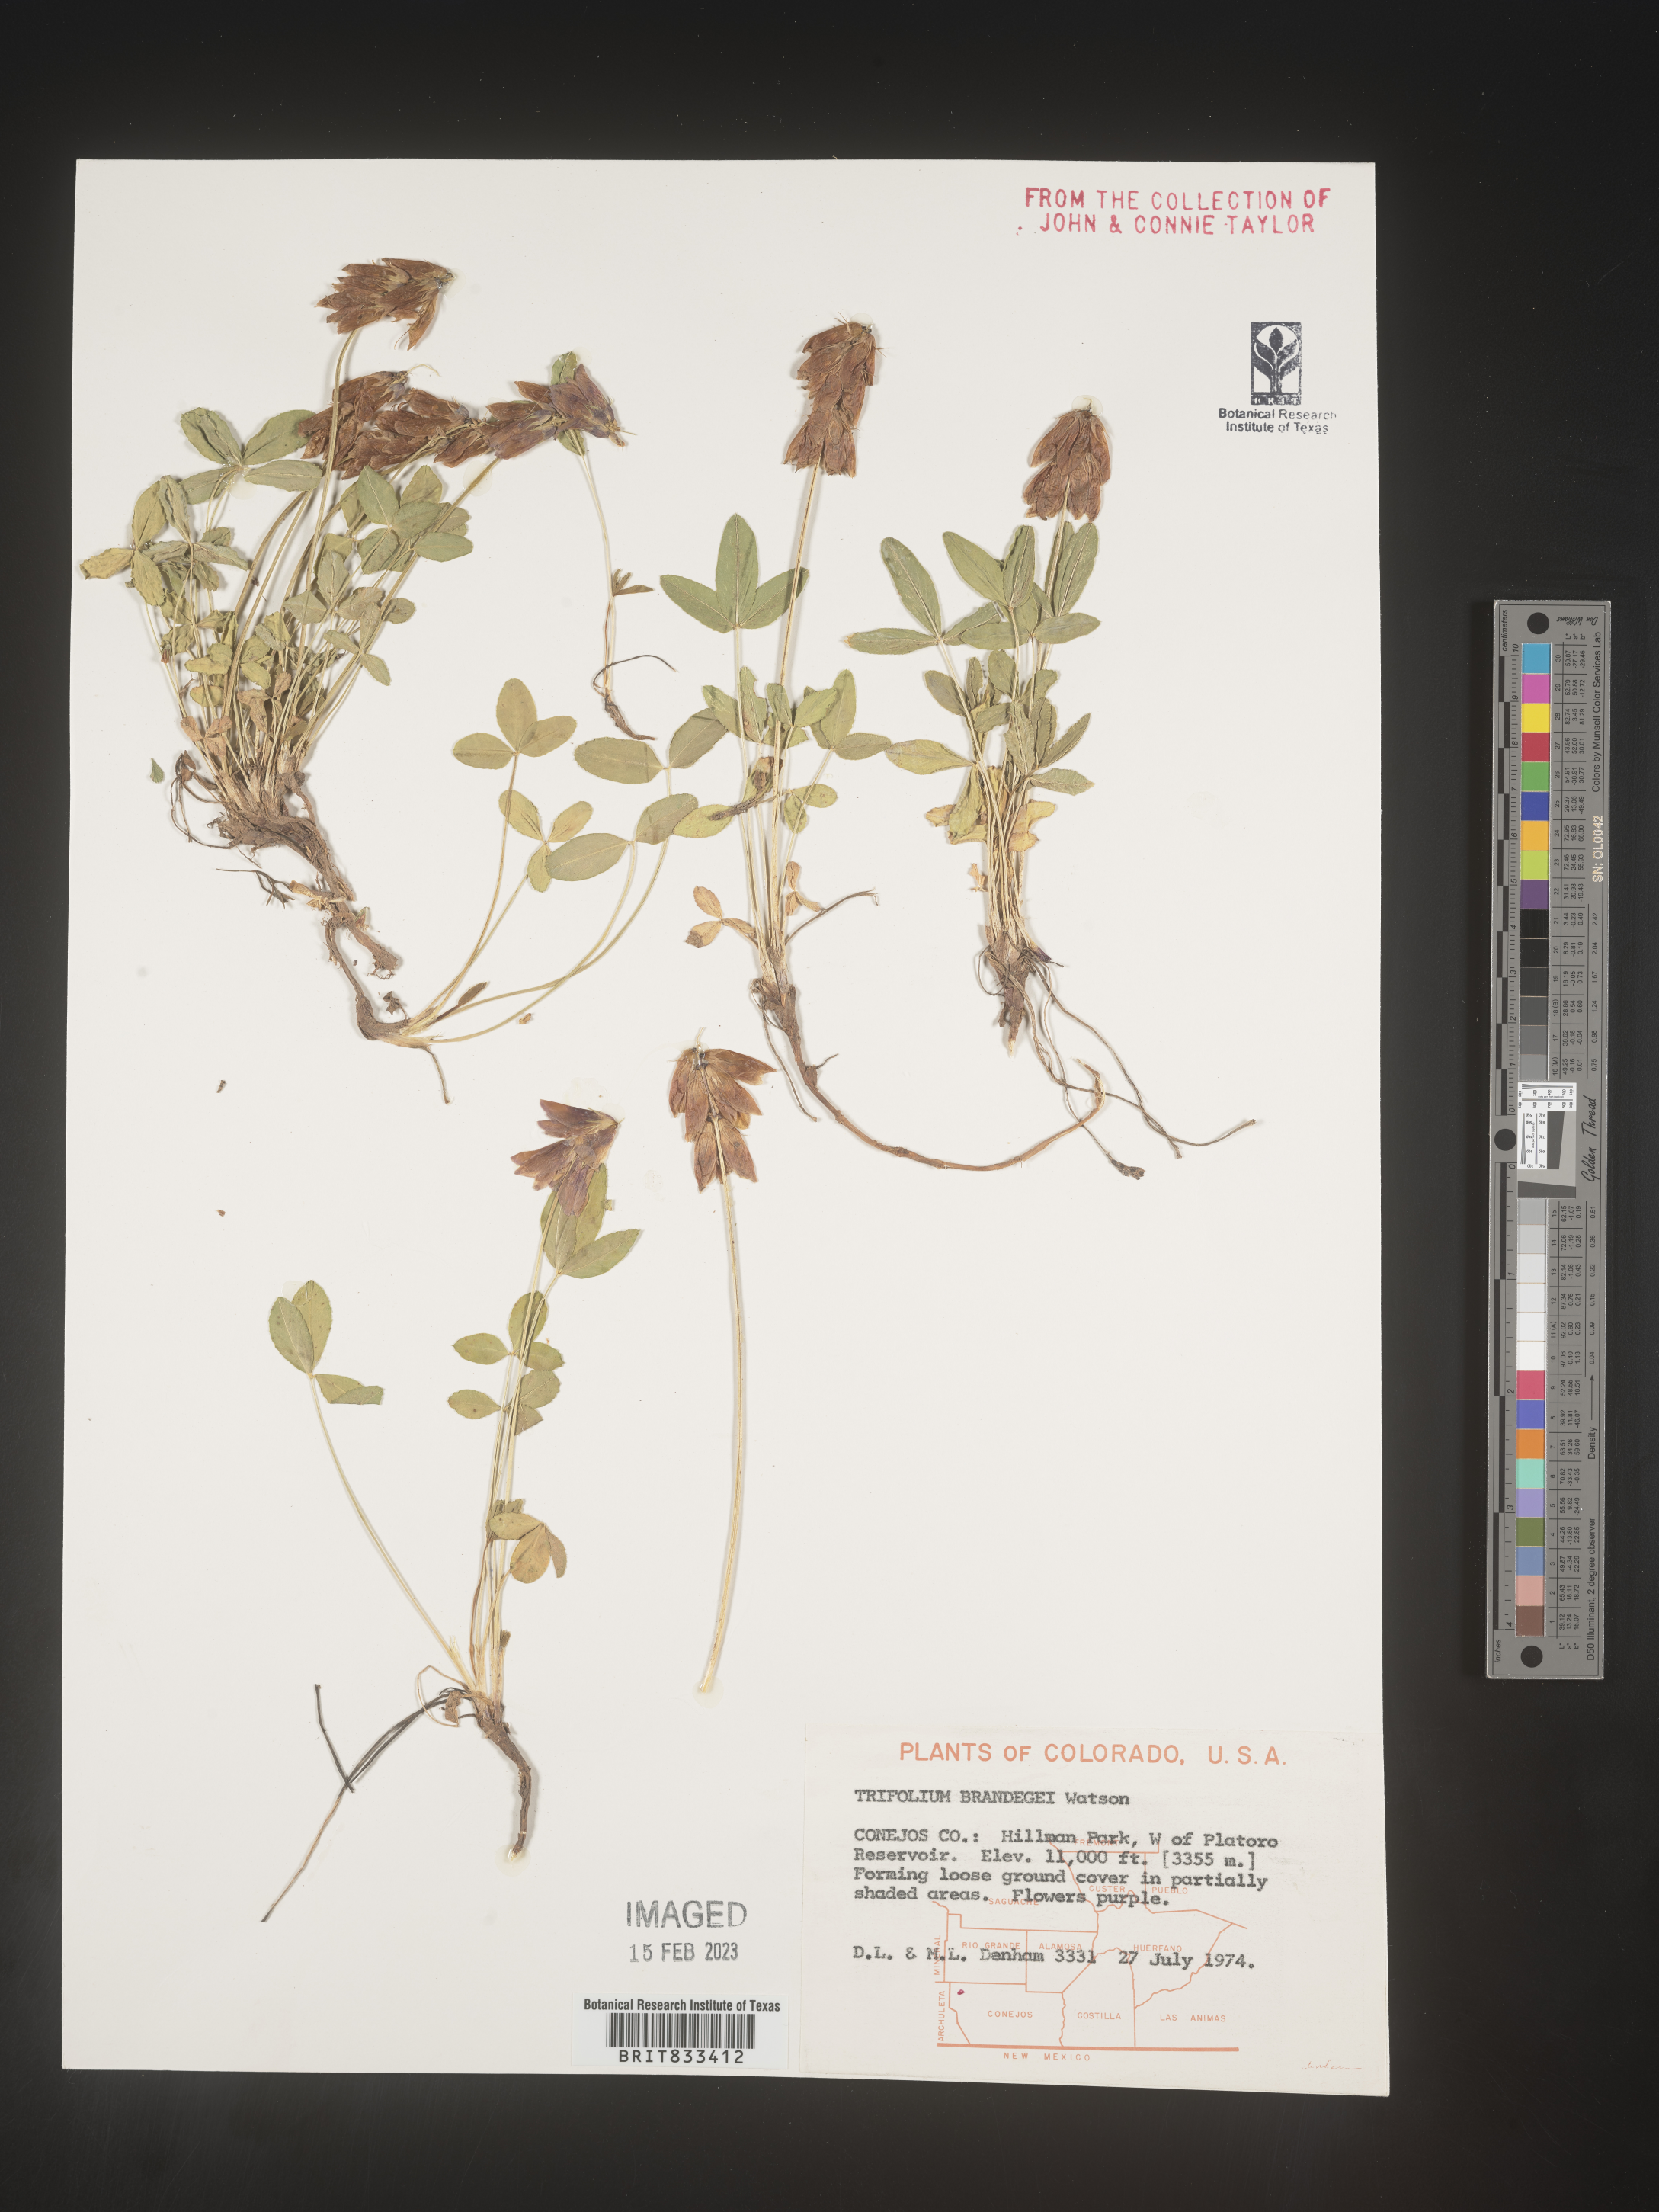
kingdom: Plantae
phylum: Tracheophyta
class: Magnoliopsida
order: Fabales
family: Fabaceae
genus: Trifolium
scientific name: Trifolium
